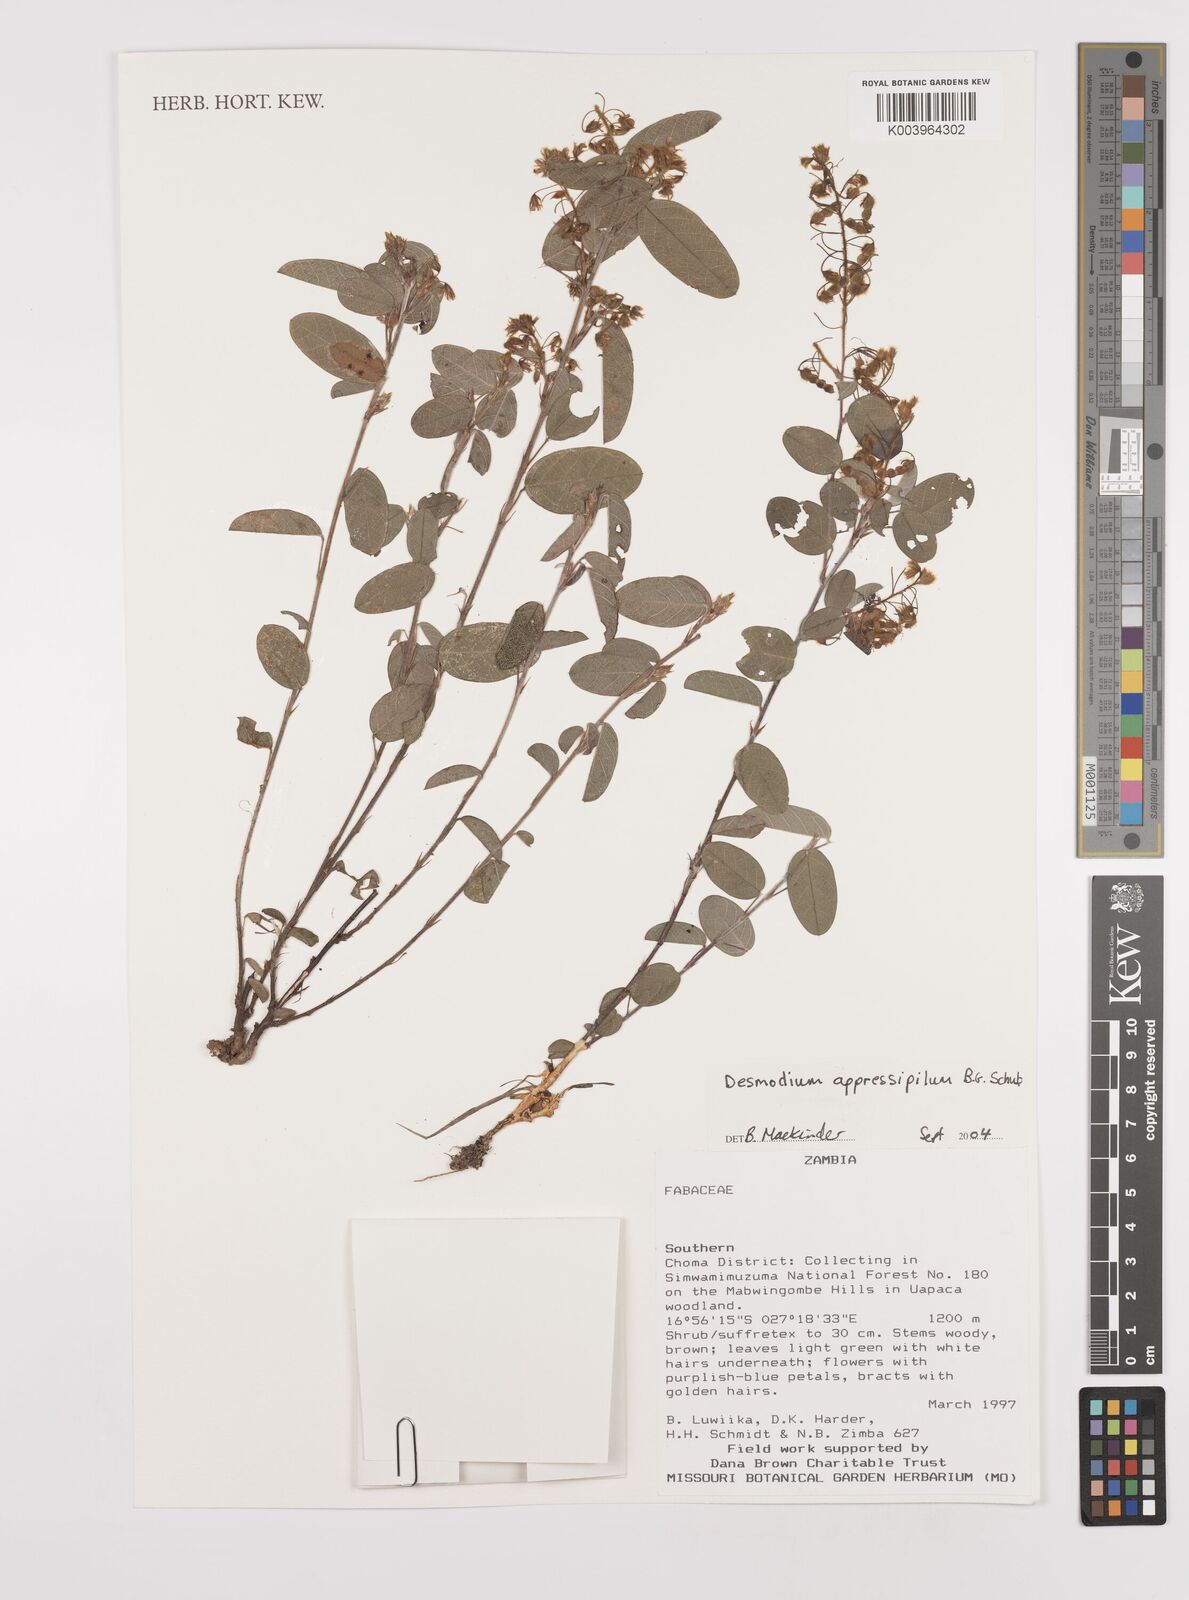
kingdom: Plantae
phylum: Tracheophyta
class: Magnoliopsida
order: Fabales
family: Fabaceae
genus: Grona
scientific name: Grona appressipila
